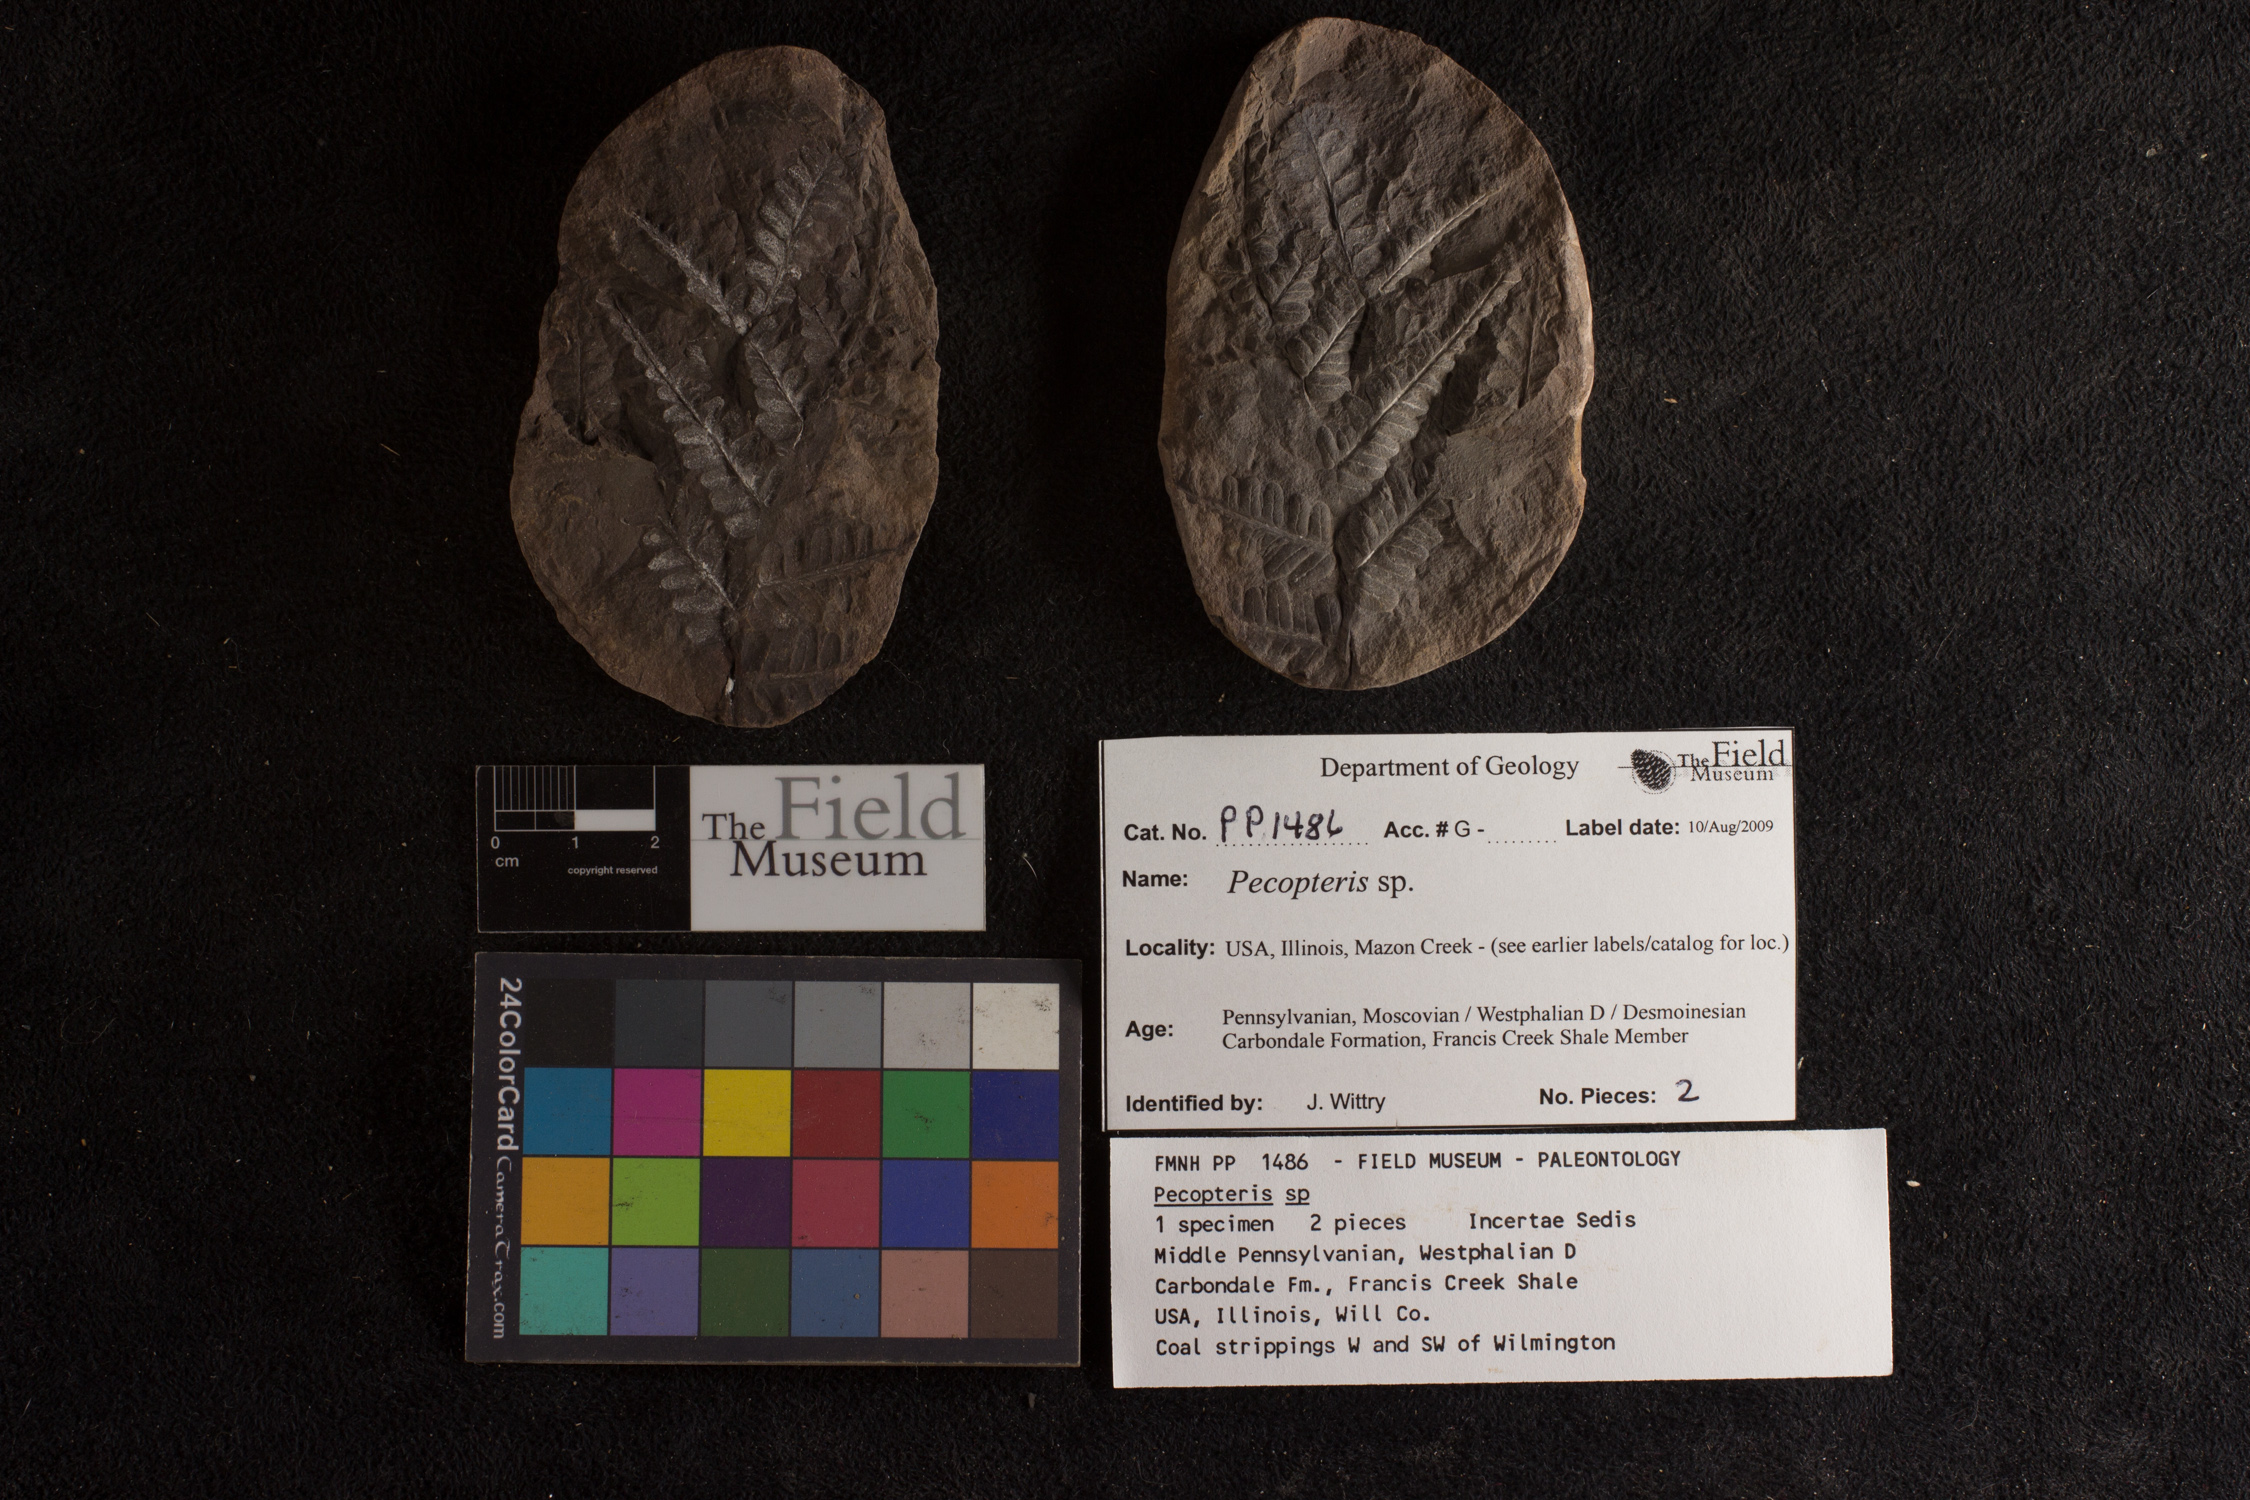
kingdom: Plantae
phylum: Tracheophyta
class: Polypodiopsida
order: Marattiales
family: Asterothecaceae
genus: Pecopteris
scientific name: Pecopteris
